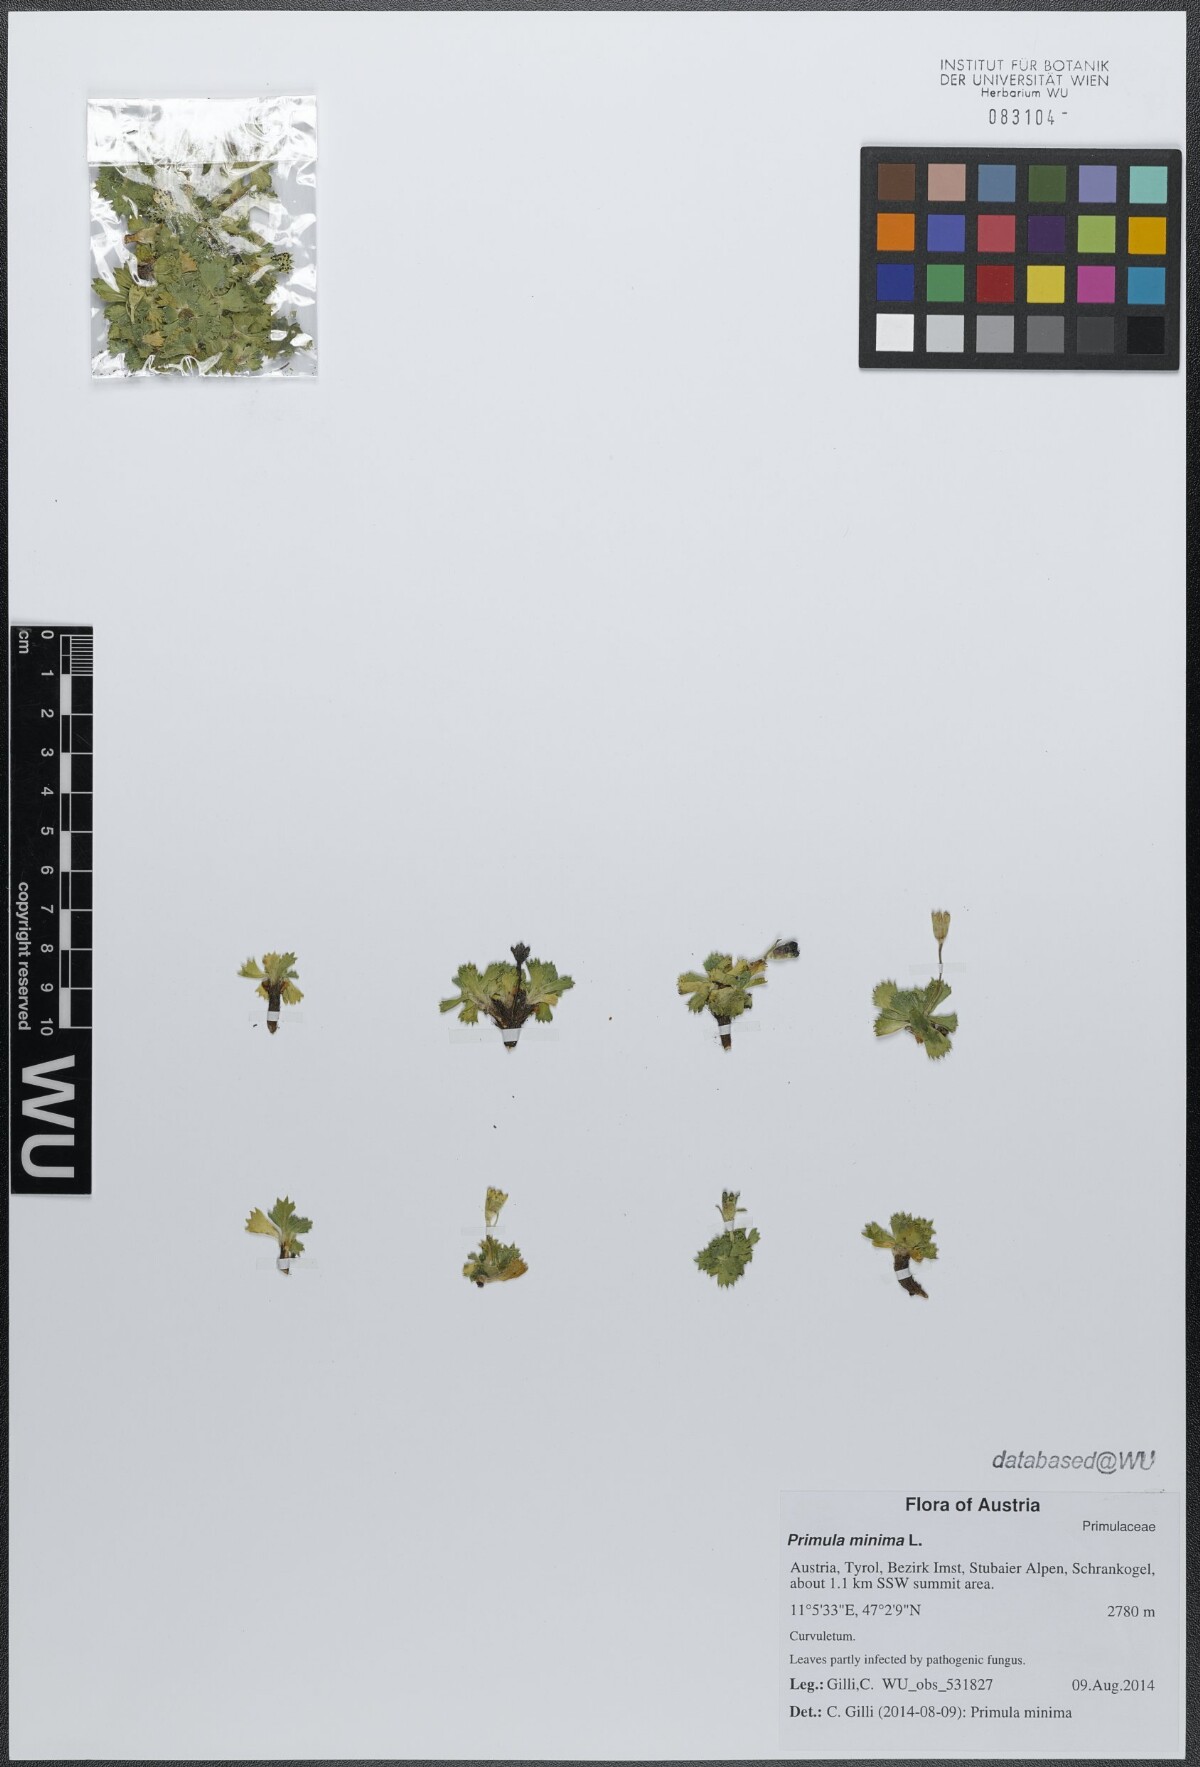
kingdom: Plantae
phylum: Tracheophyta
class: Magnoliopsida
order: Ericales
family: Primulaceae
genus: Primula
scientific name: Primula minima
